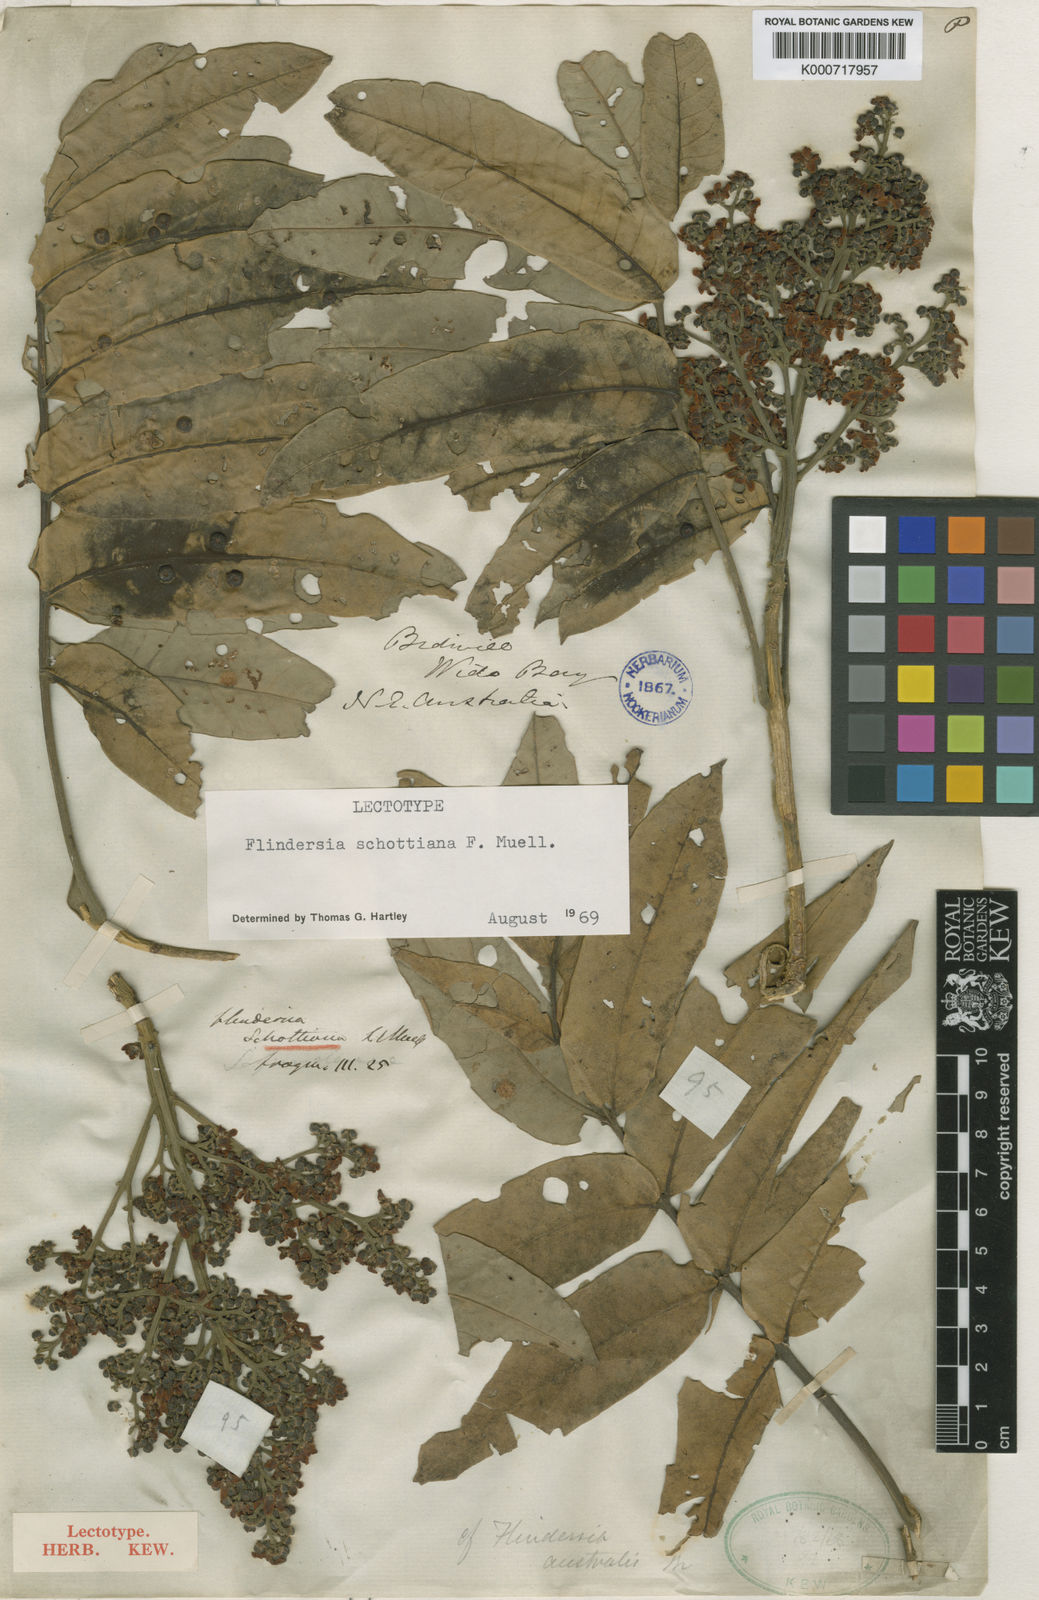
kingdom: Plantae
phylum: Tracheophyta
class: Magnoliopsida
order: Sapindales
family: Rutaceae
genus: Flindersia
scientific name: Flindersia schottiana
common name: Silver ash
